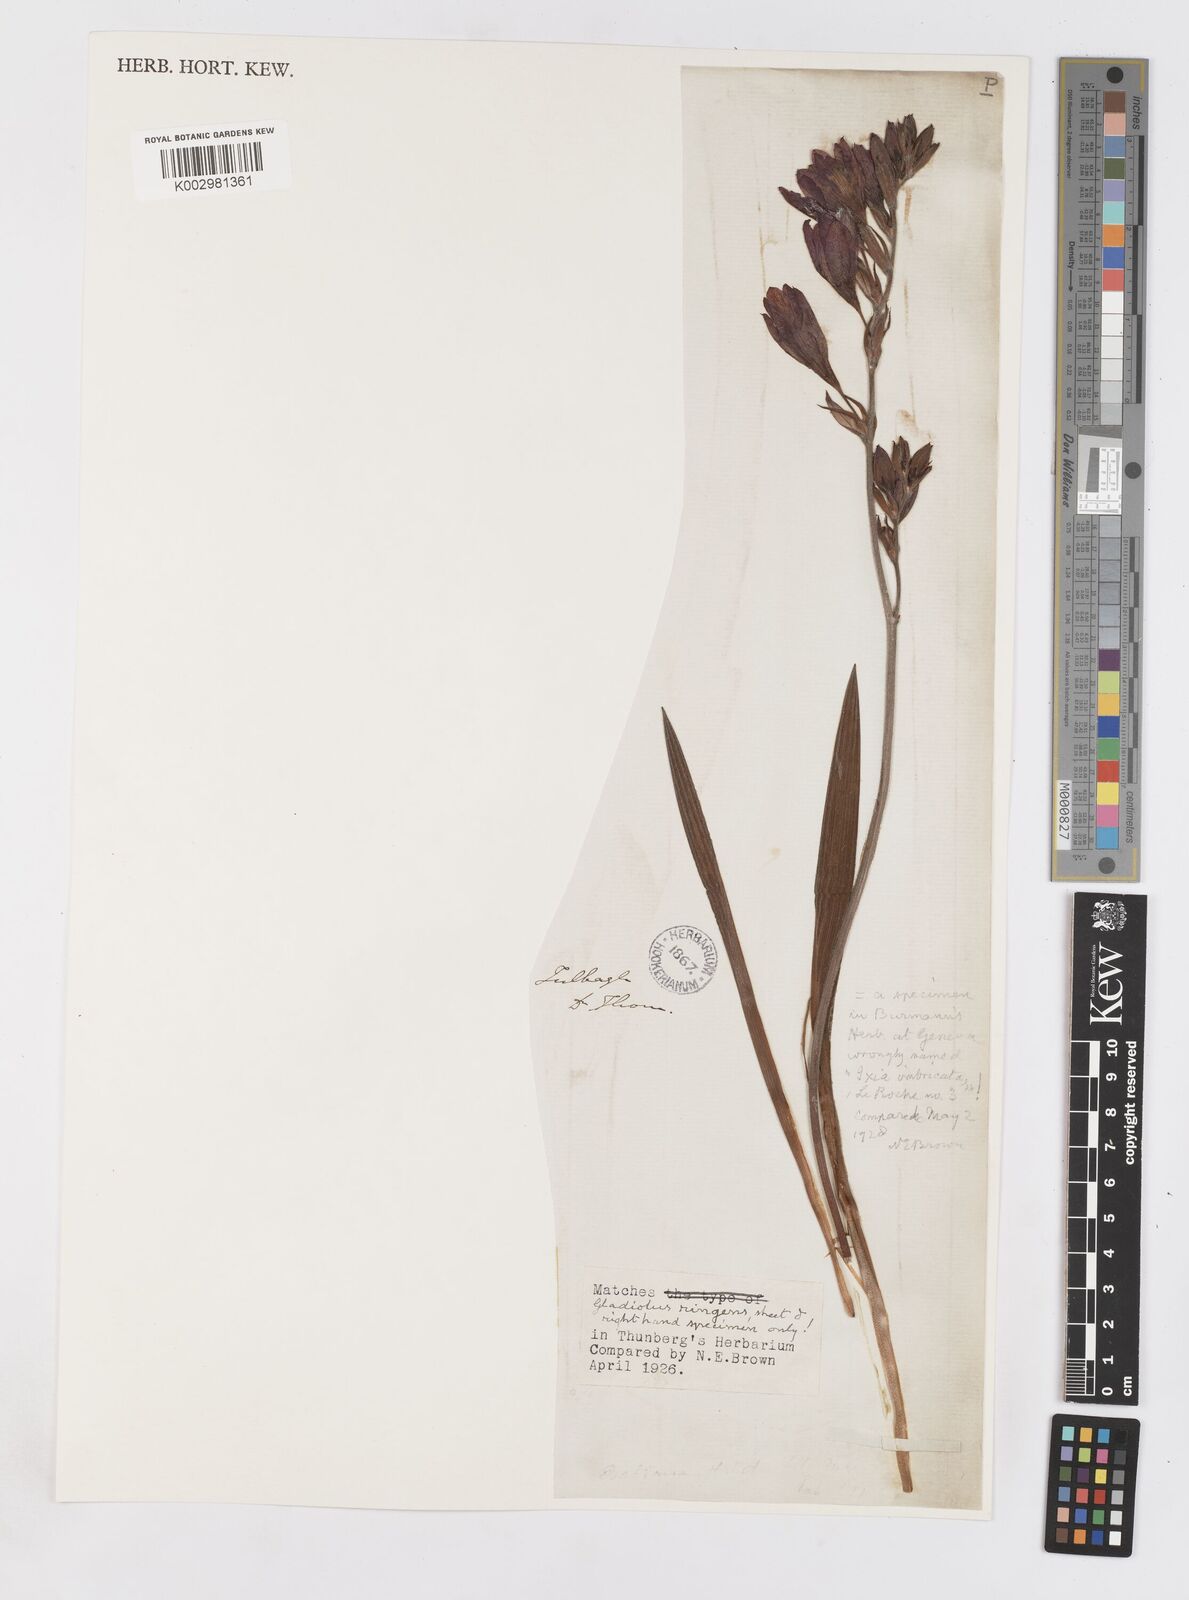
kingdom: Plantae
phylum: Tracheophyta
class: Liliopsida
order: Asparagales
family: Iridaceae
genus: Babiana
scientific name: Babiana
